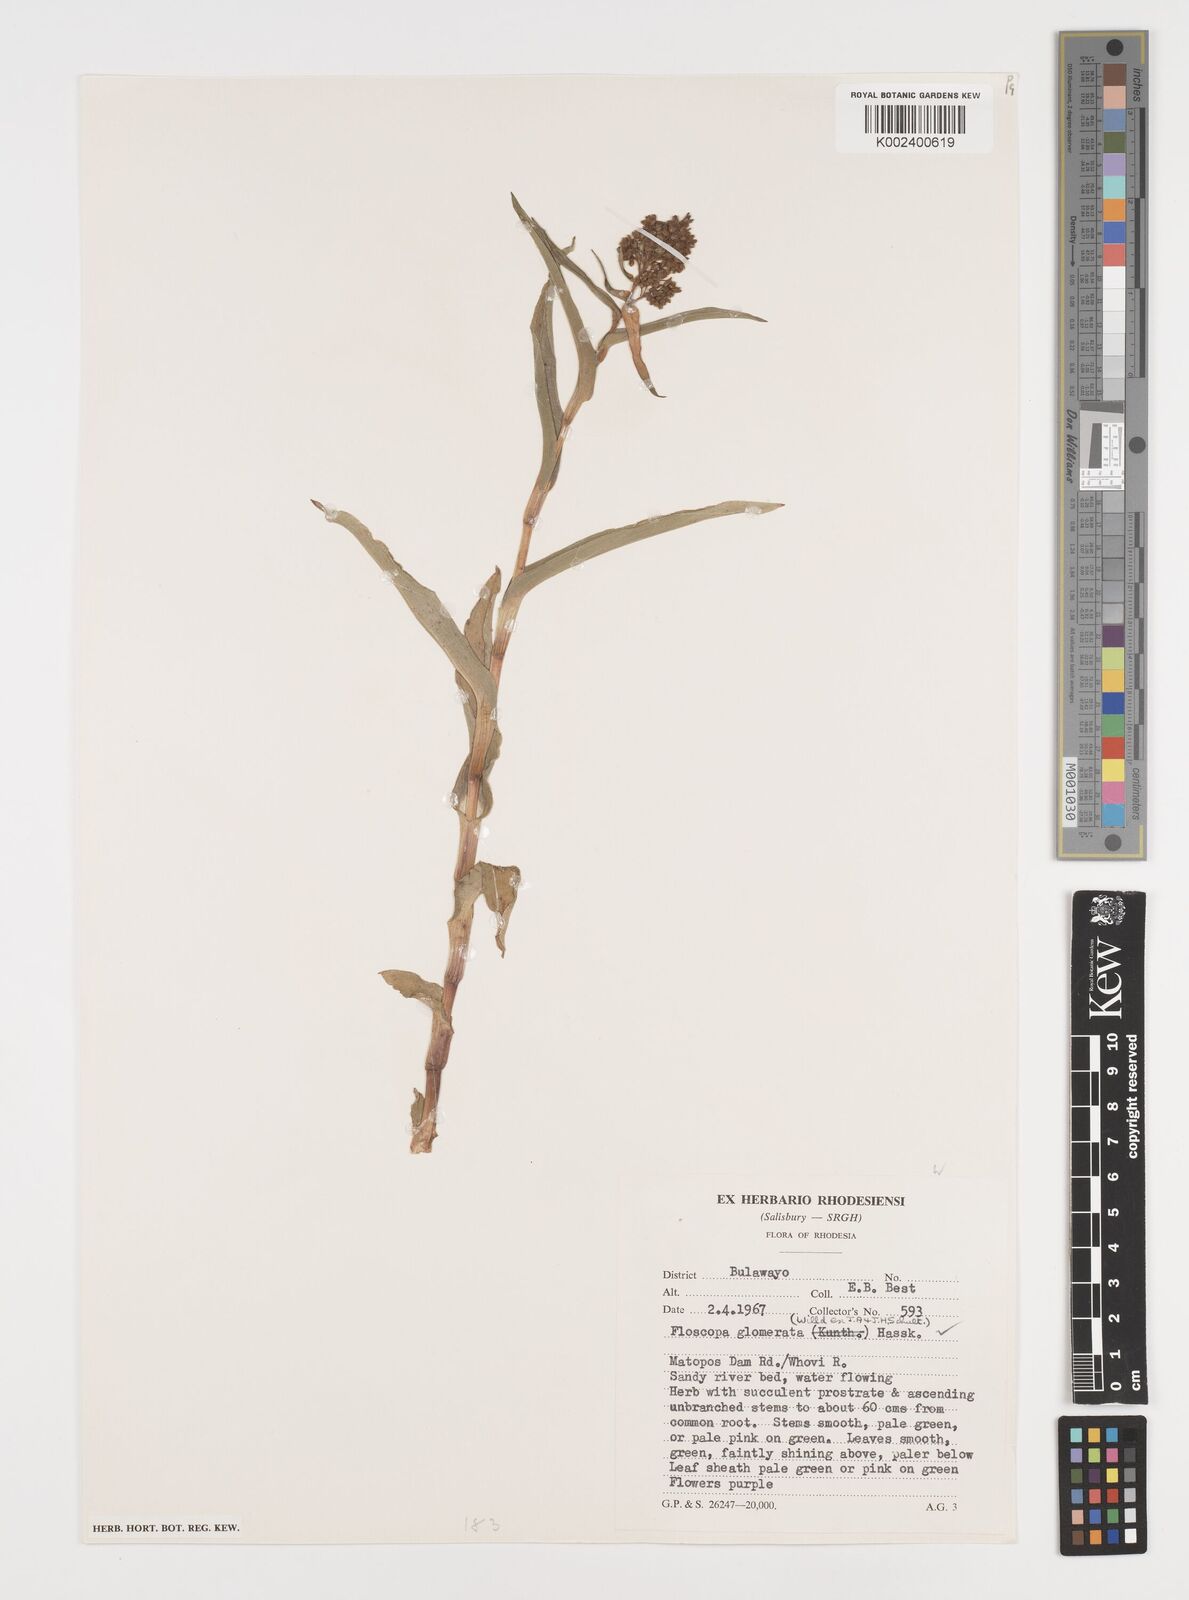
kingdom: Plantae
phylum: Tracheophyta
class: Liliopsida
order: Commelinales
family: Commelinaceae
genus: Floscopa
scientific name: Floscopa glomerata
